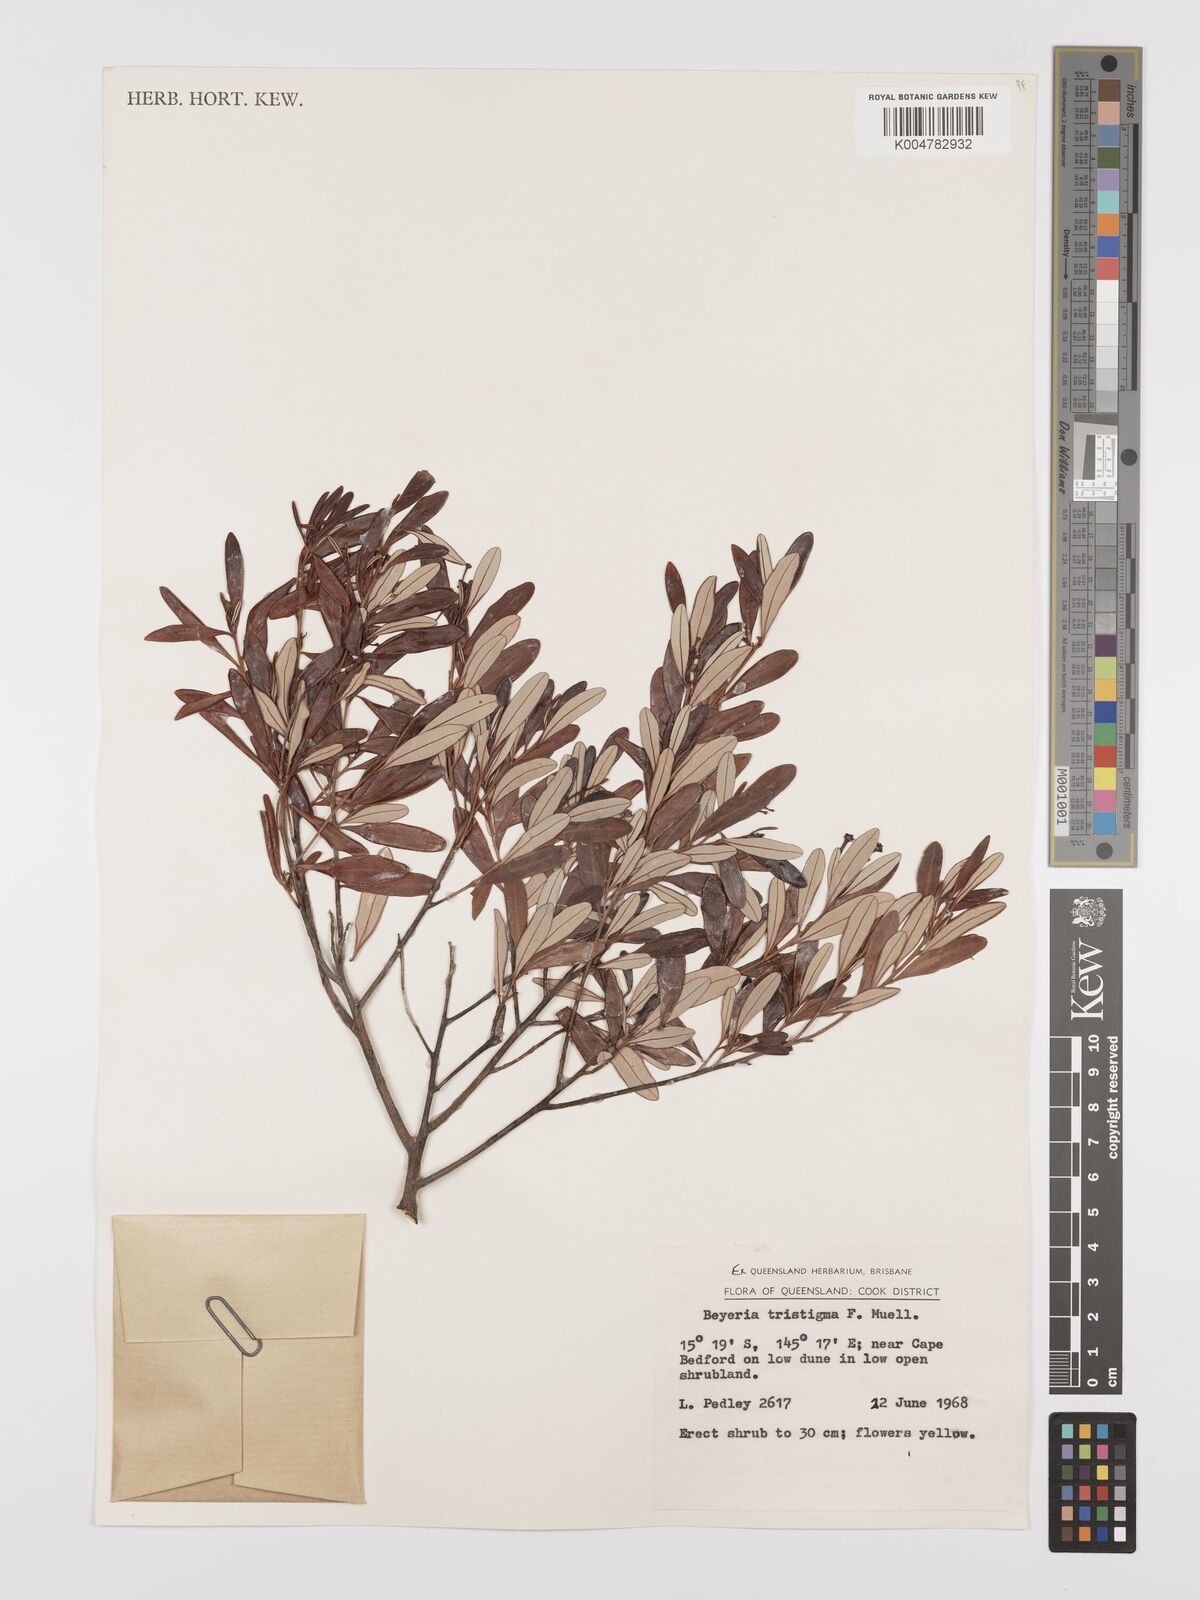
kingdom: Plantae
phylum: Tracheophyta
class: Magnoliopsida
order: Malpighiales
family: Euphorbiaceae
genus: Shonia
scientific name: Shonia tristigma
